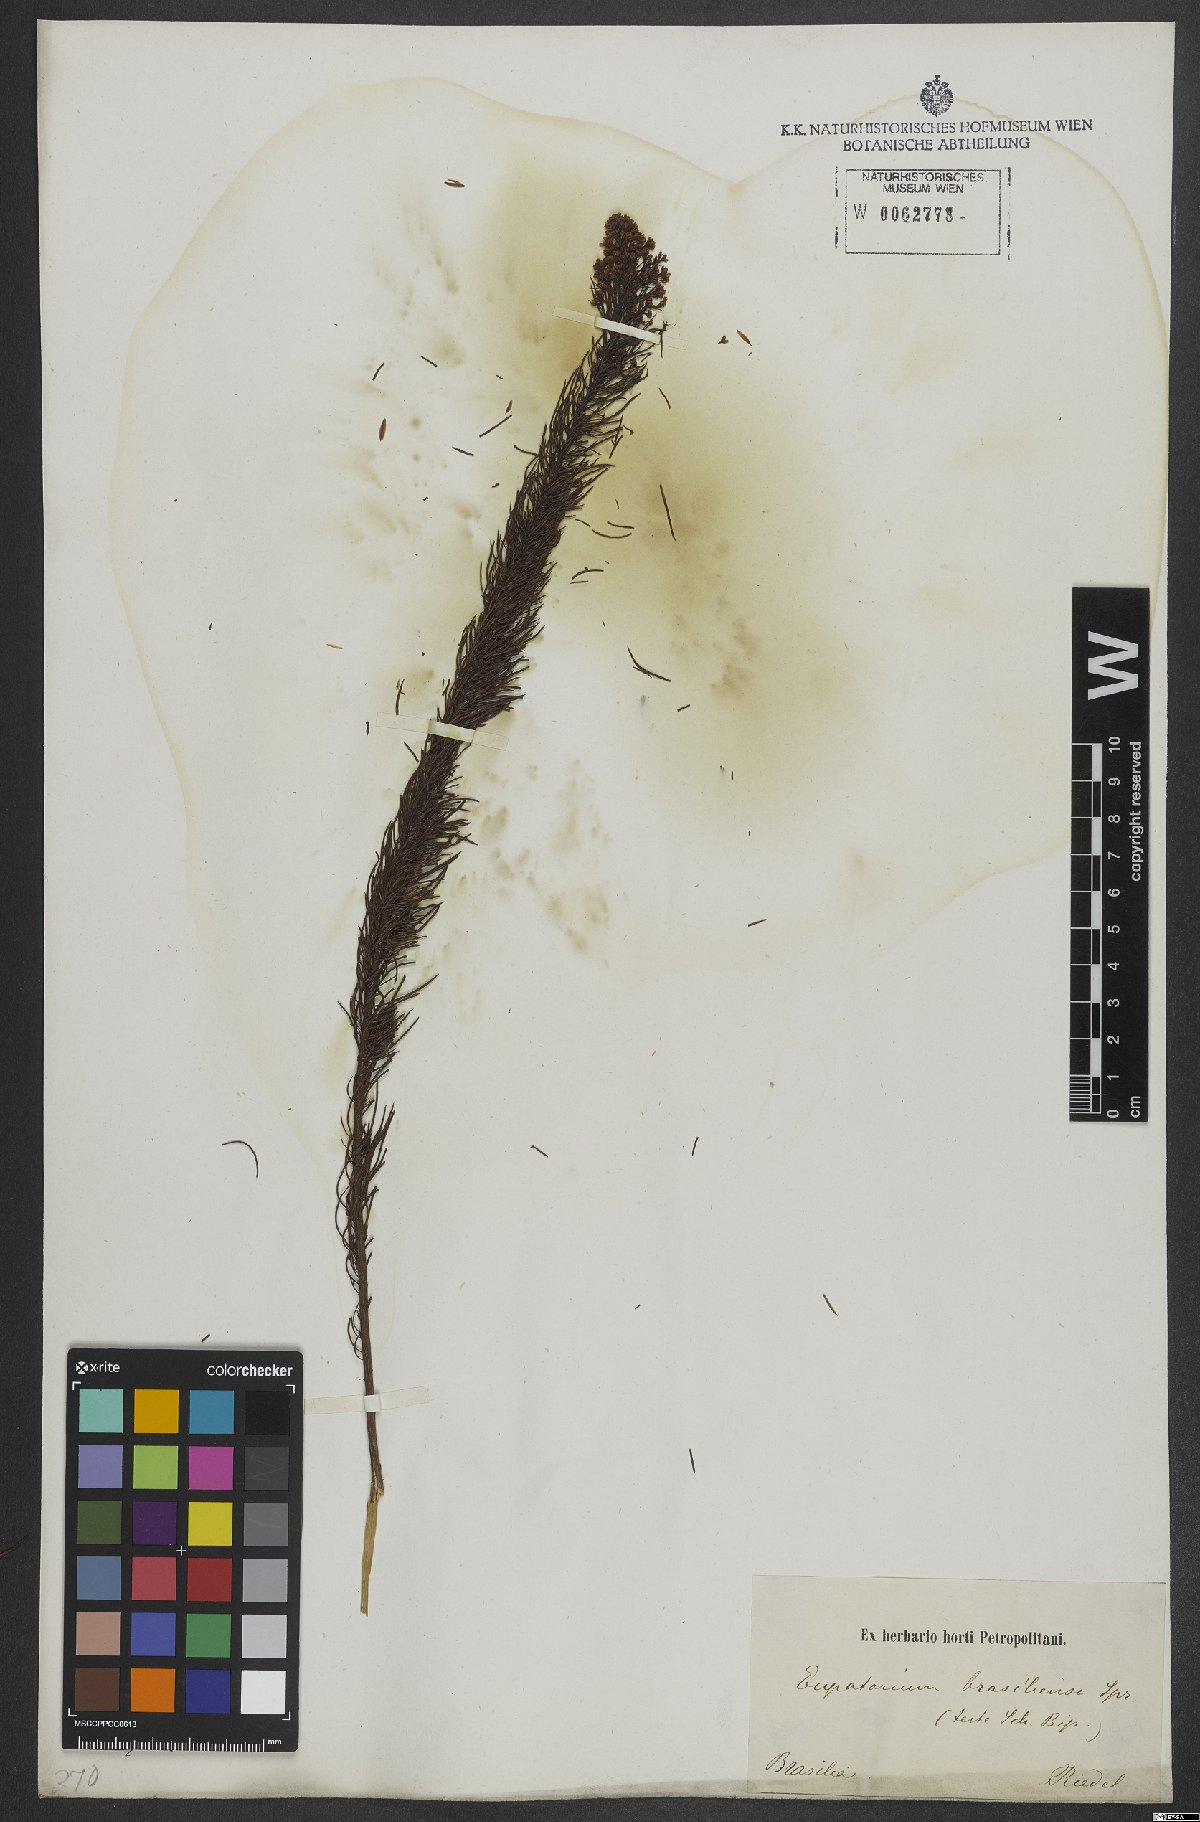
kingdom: Plantae
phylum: Tracheophyta
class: Magnoliopsida
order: Asterales
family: Asteraceae
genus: Pseudobrickellia
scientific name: Pseudobrickellia brasiliensis
